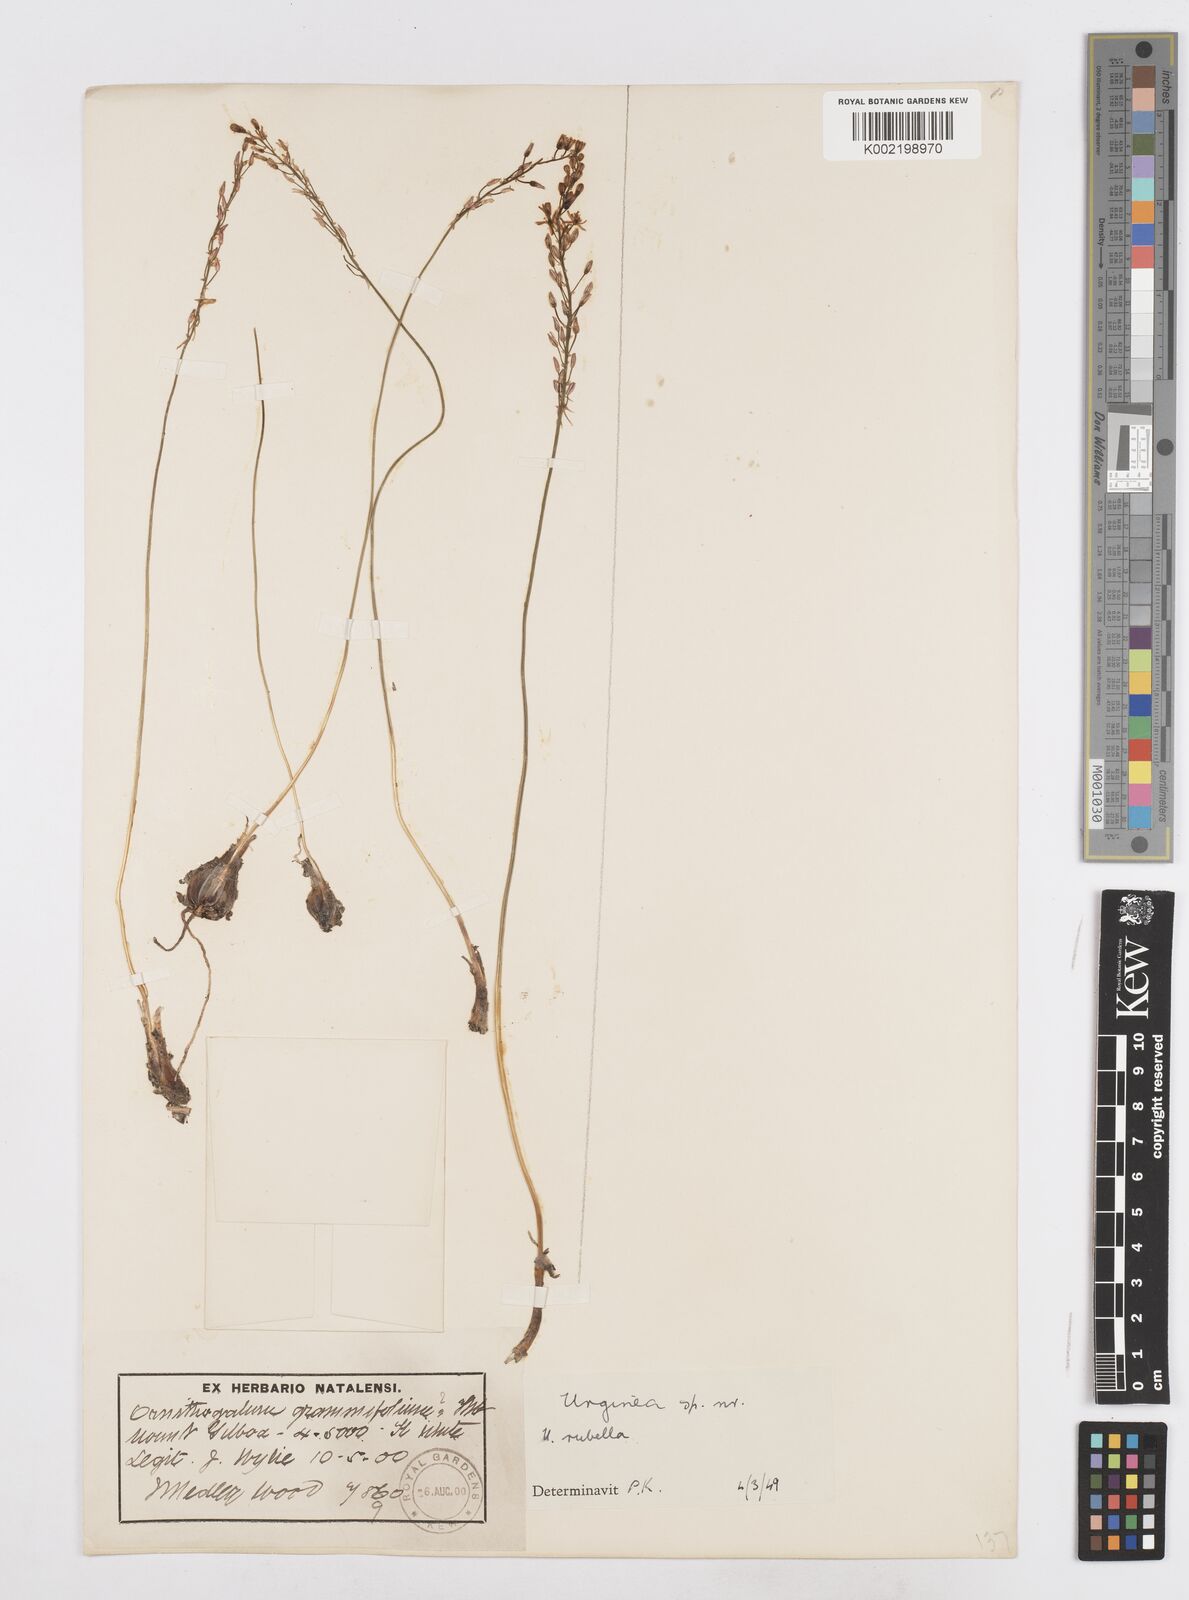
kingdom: Plantae
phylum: Tracheophyta
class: Liliopsida
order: Asparagales
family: Asparagaceae
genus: Drimia
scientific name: Drimia
